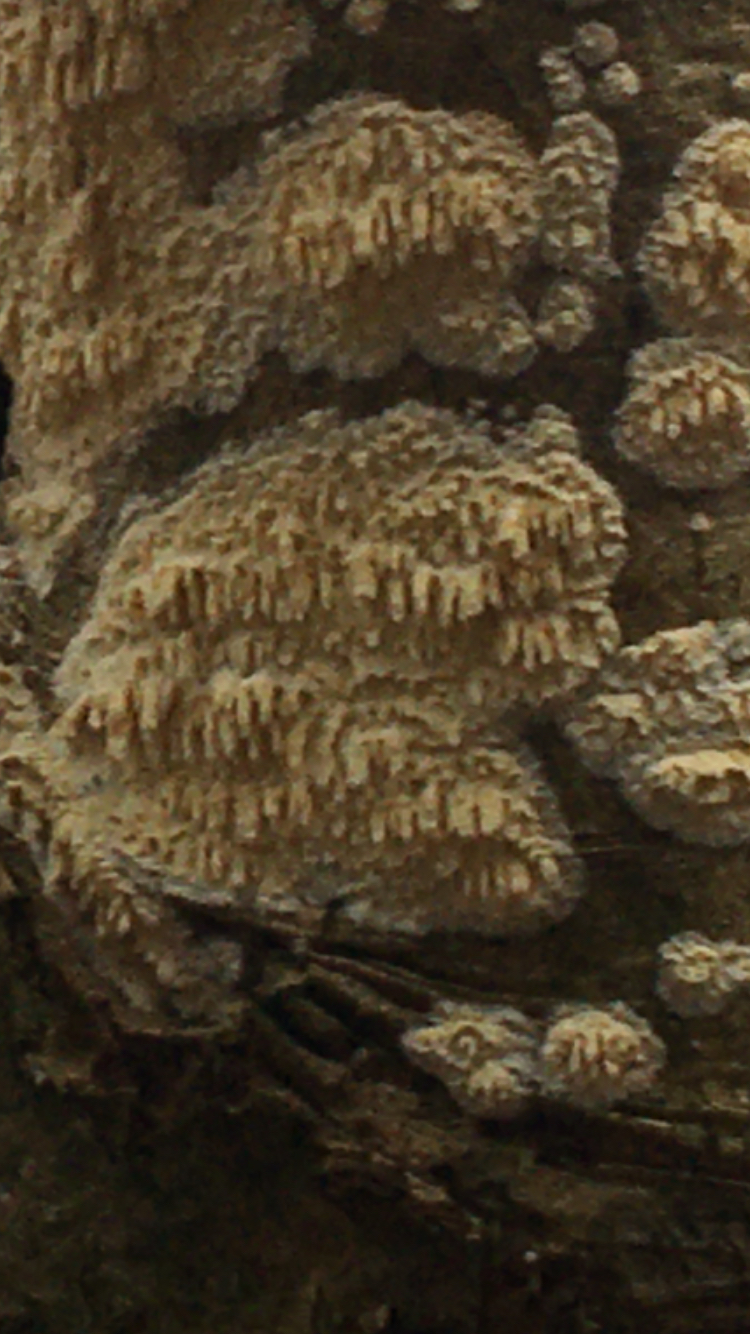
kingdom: Fungi
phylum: Basidiomycota
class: Agaricomycetes
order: Hymenochaetales
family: Schizoporaceae
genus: Xylodon
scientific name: Xylodon radula
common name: grovtandet kalkskind
